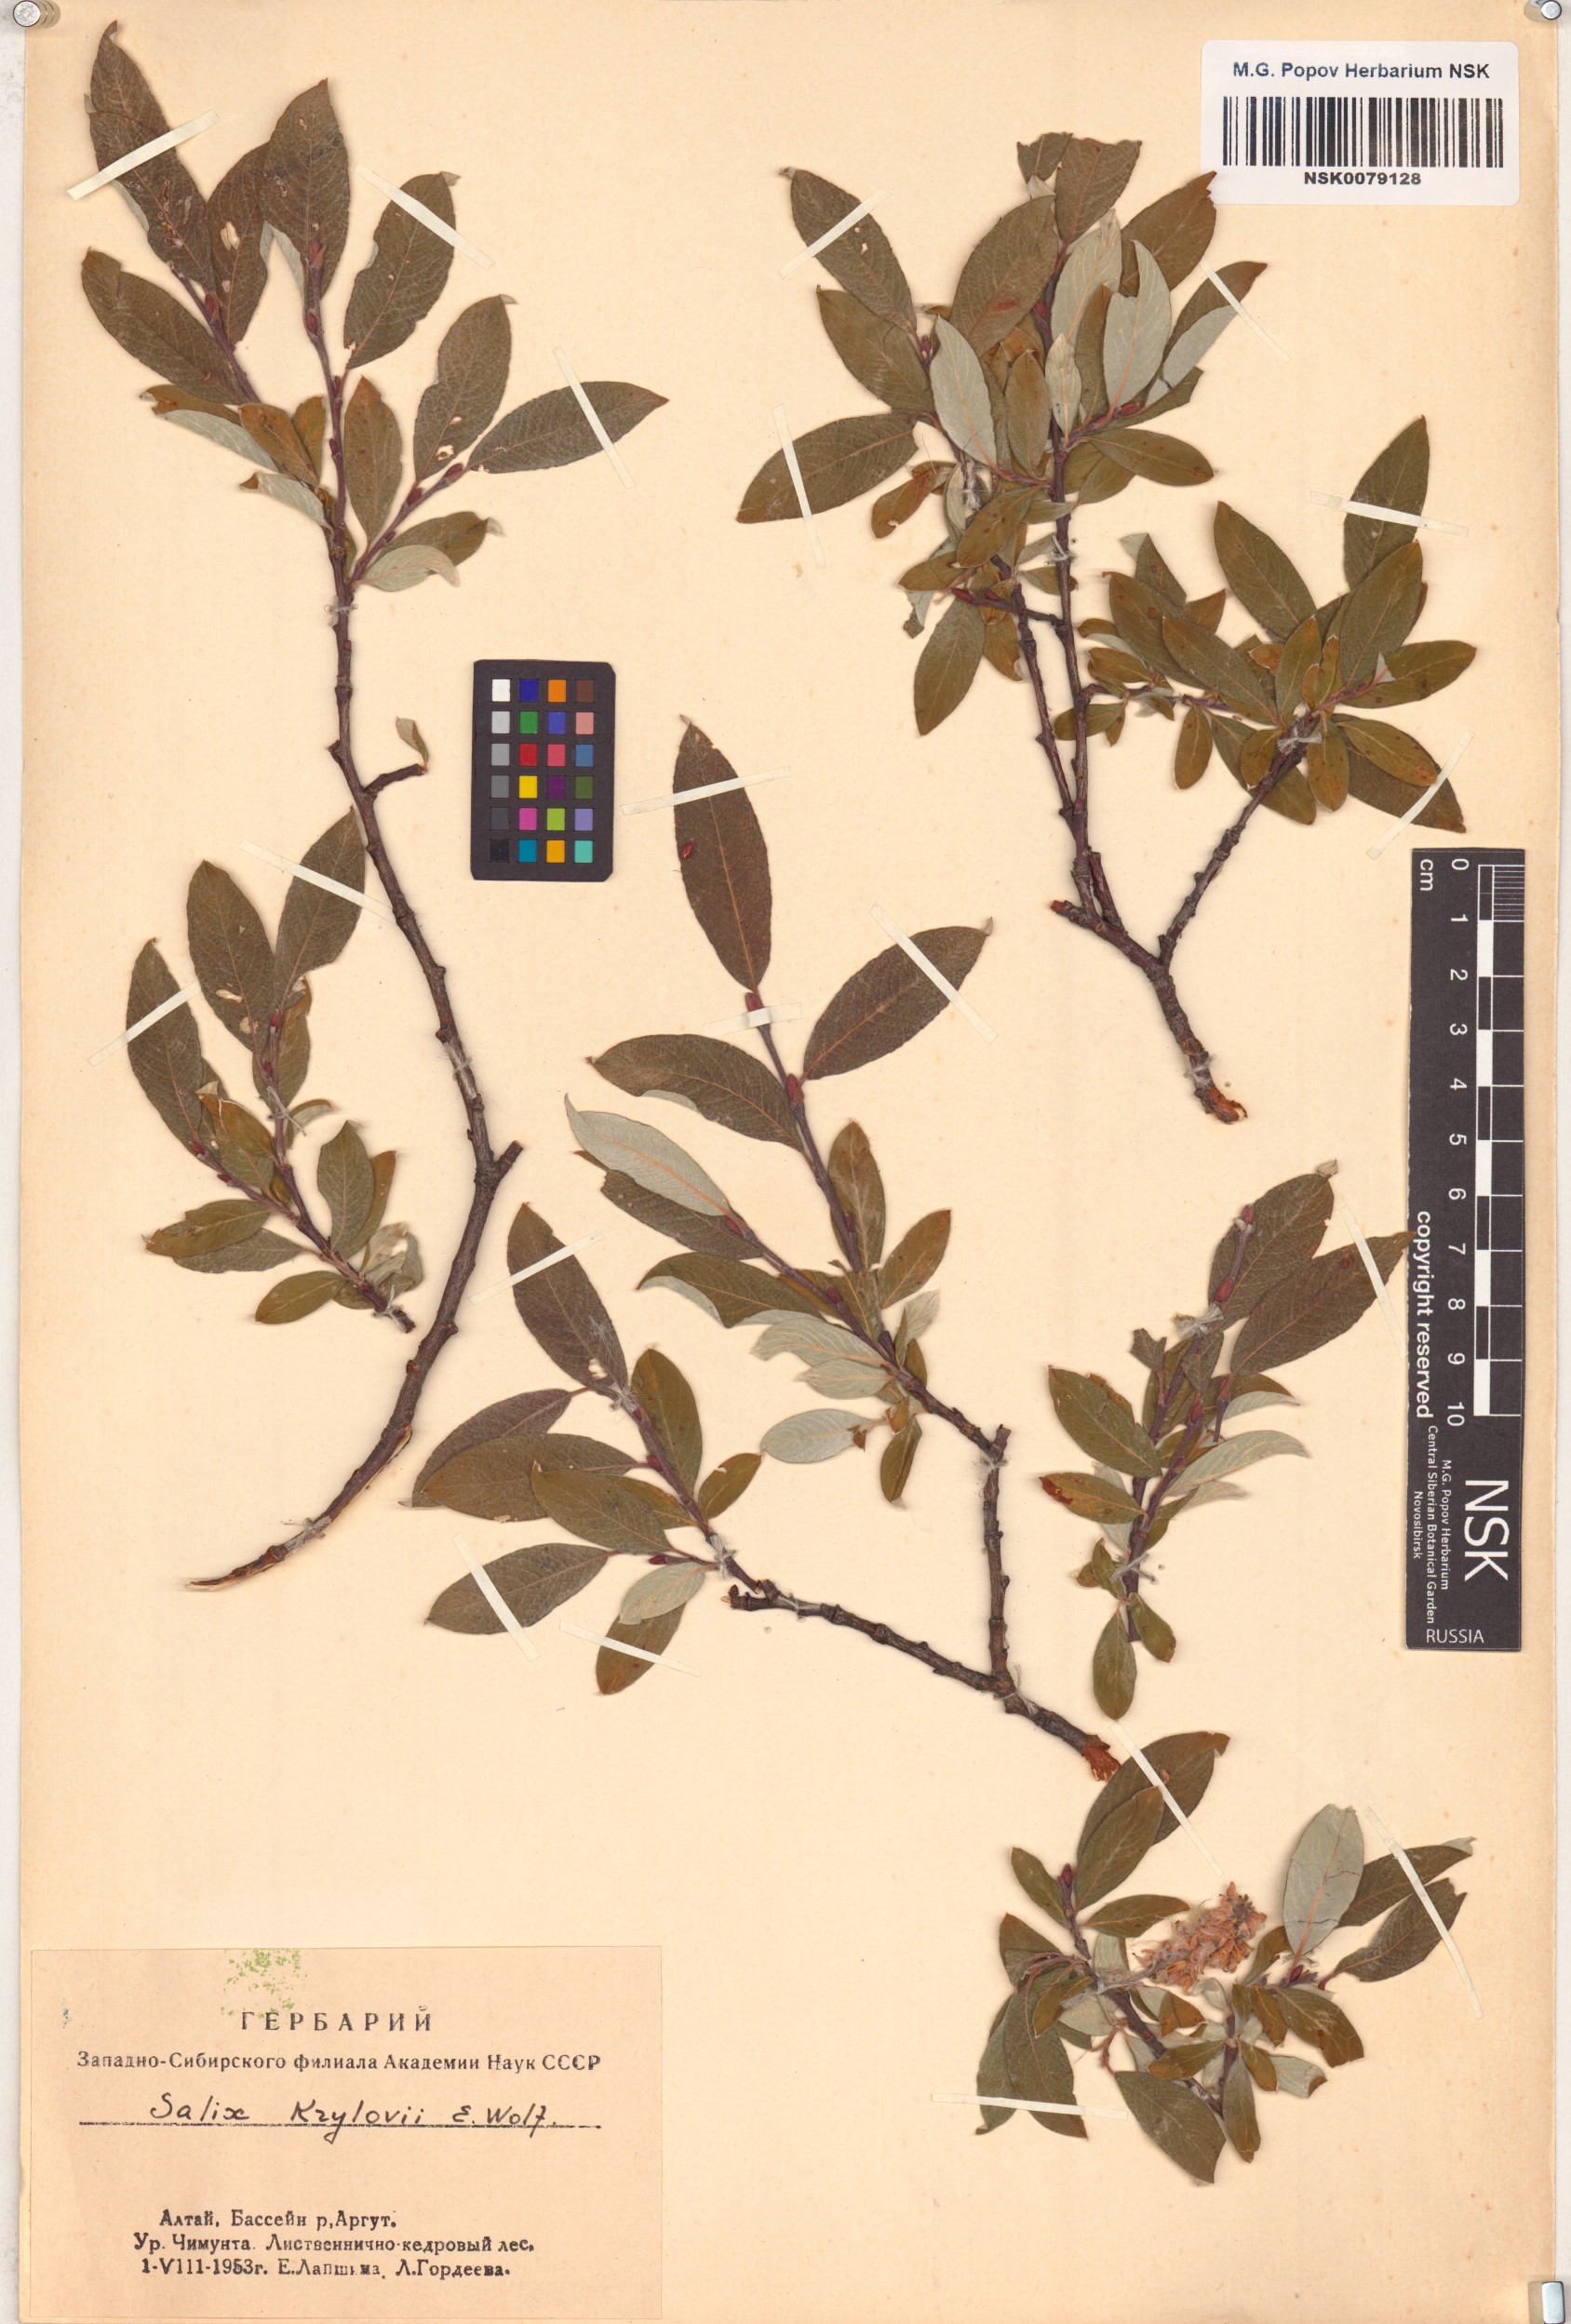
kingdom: Plantae
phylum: Tracheophyta
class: Magnoliopsida
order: Malpighiales
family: Salicaceae
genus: Salix
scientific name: Salix krylovii
